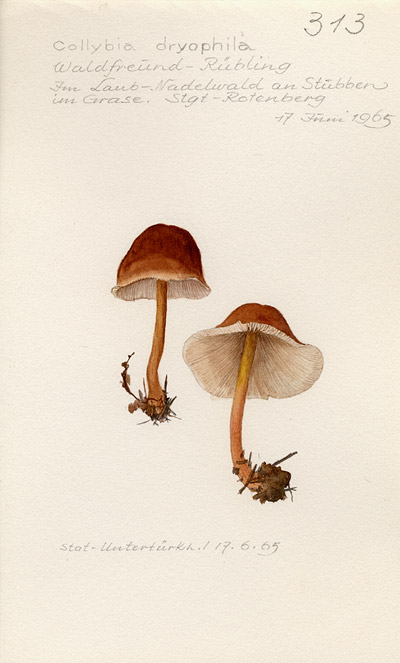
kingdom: Fungi
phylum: Basidiomycota
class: Agaricomycetes
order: Agaricales
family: Omphalotaceae
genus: Gymnopus
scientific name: Gymnopus dryophilus
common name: Penny top
